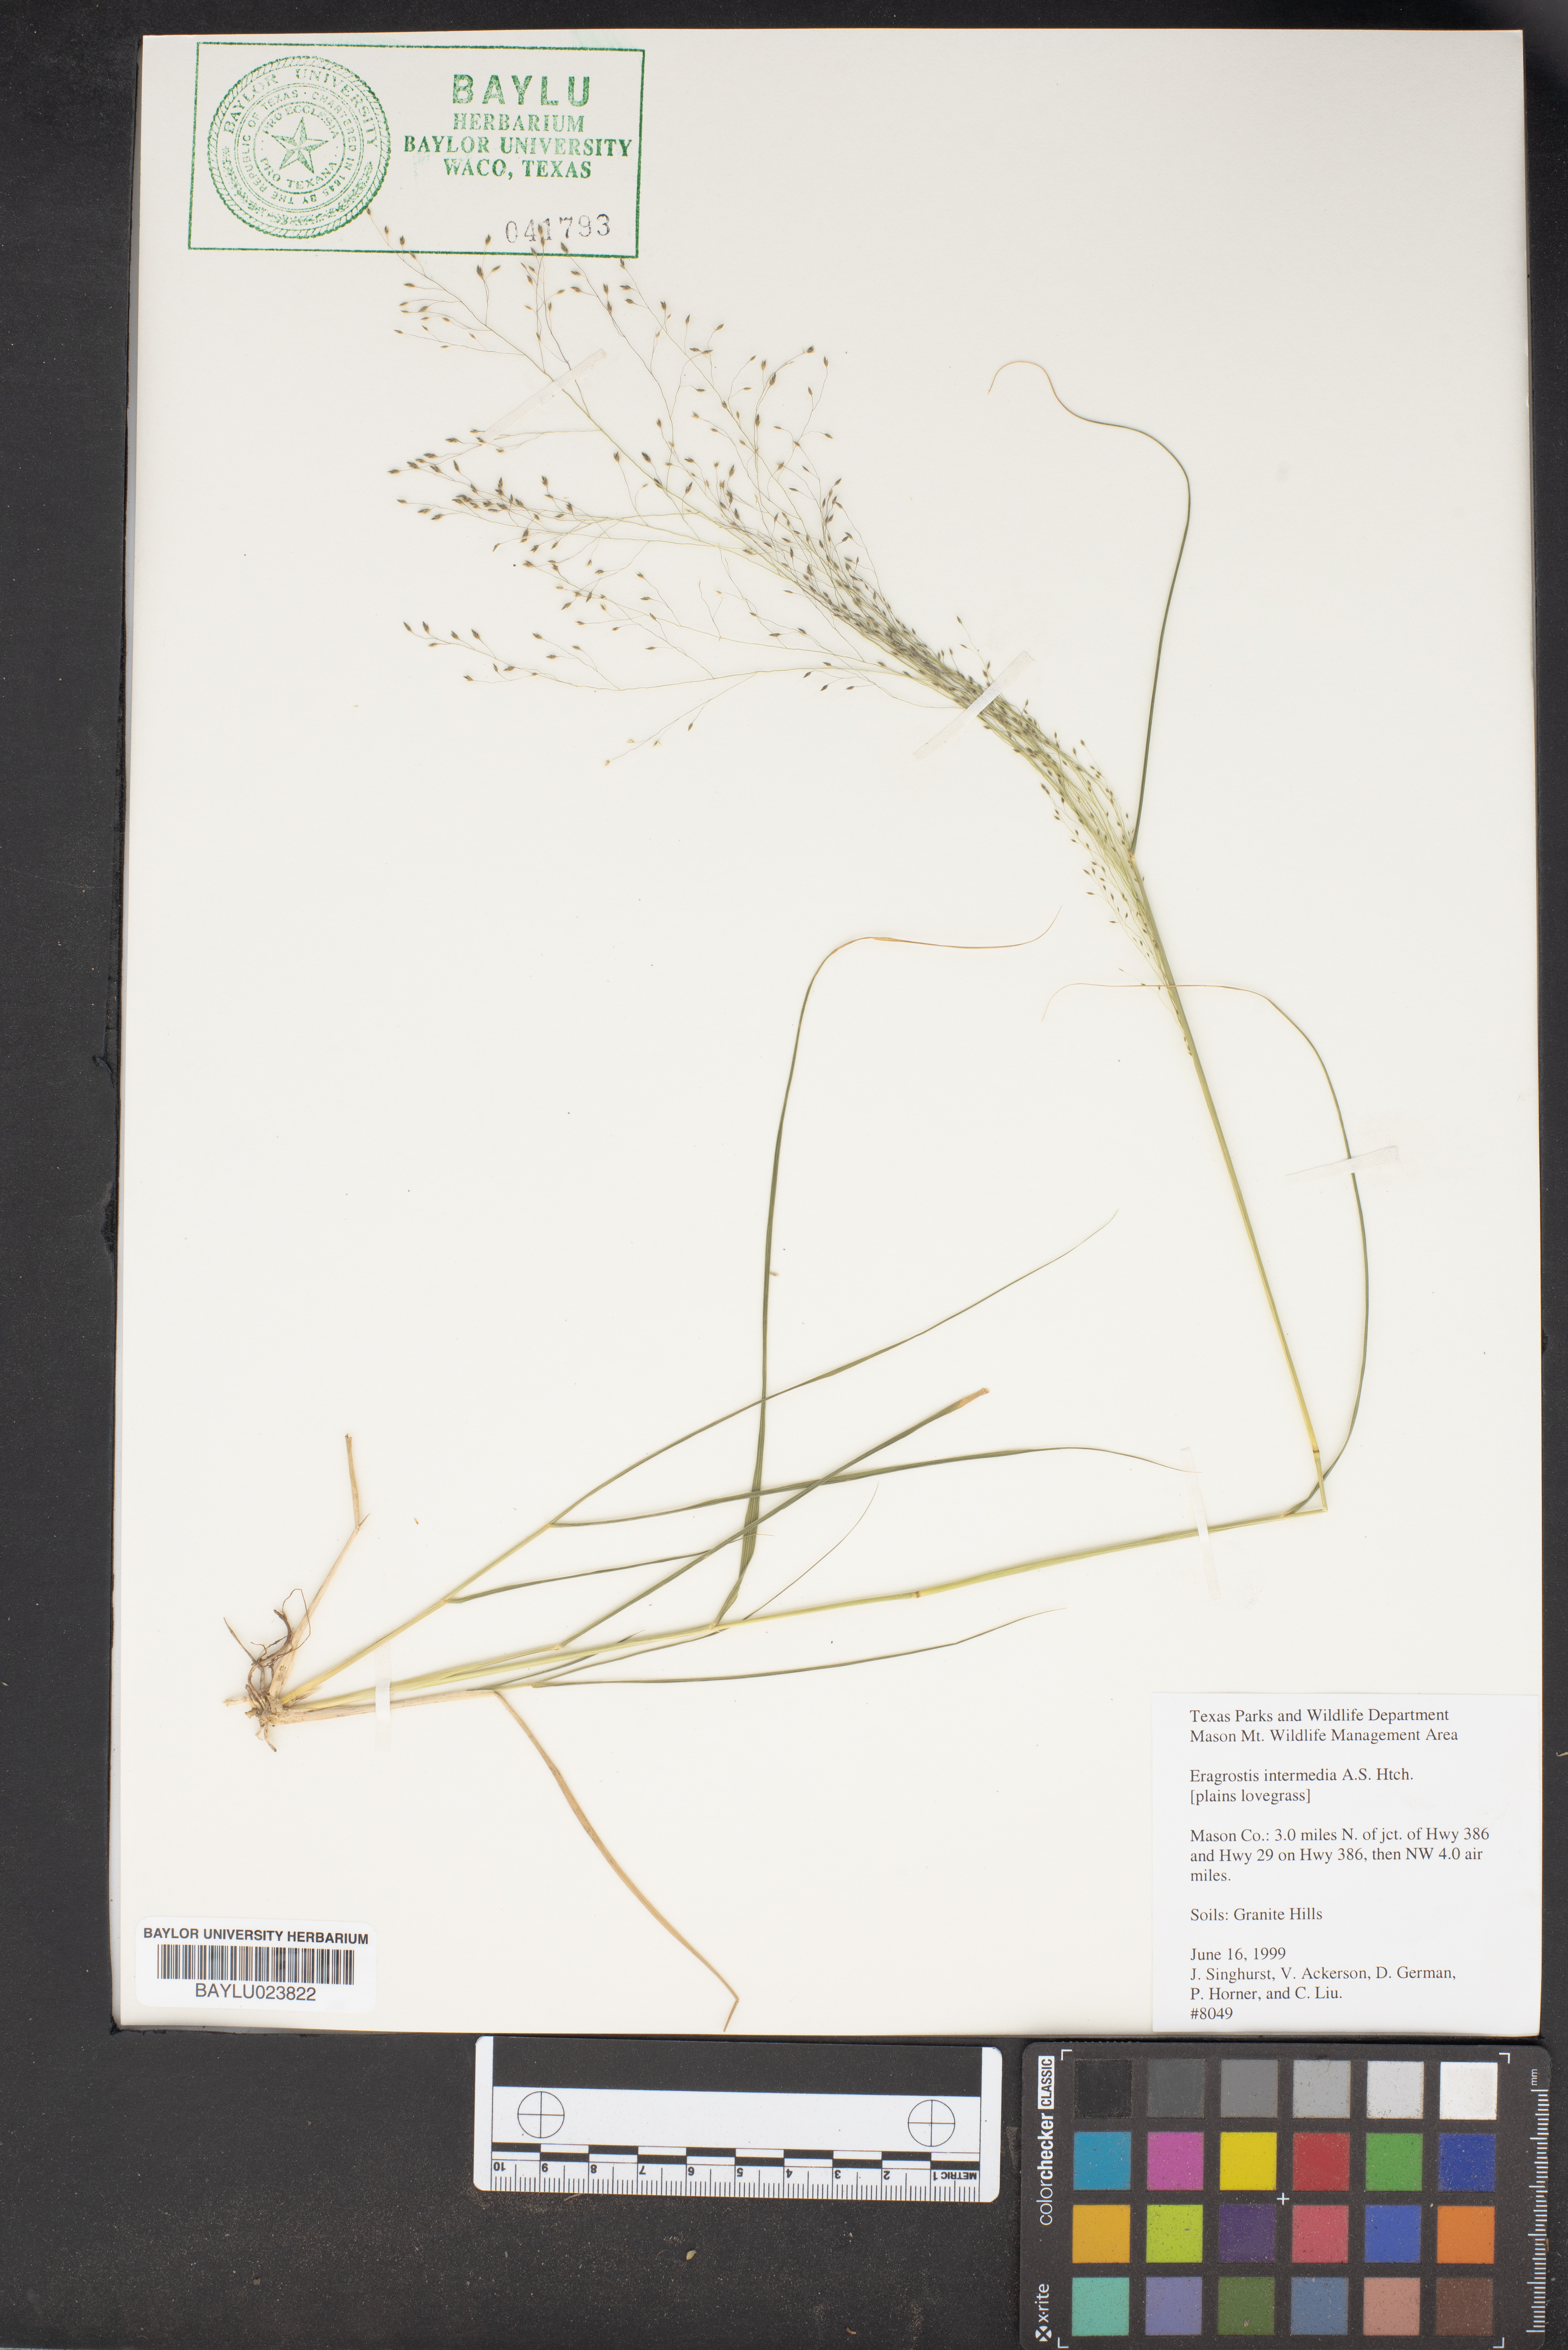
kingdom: Plantae
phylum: Tracheophyta
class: Liliopsida
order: Poales
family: Poaceae
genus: Eragrostis
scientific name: Eragrostis intermedia
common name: Plains love grass
